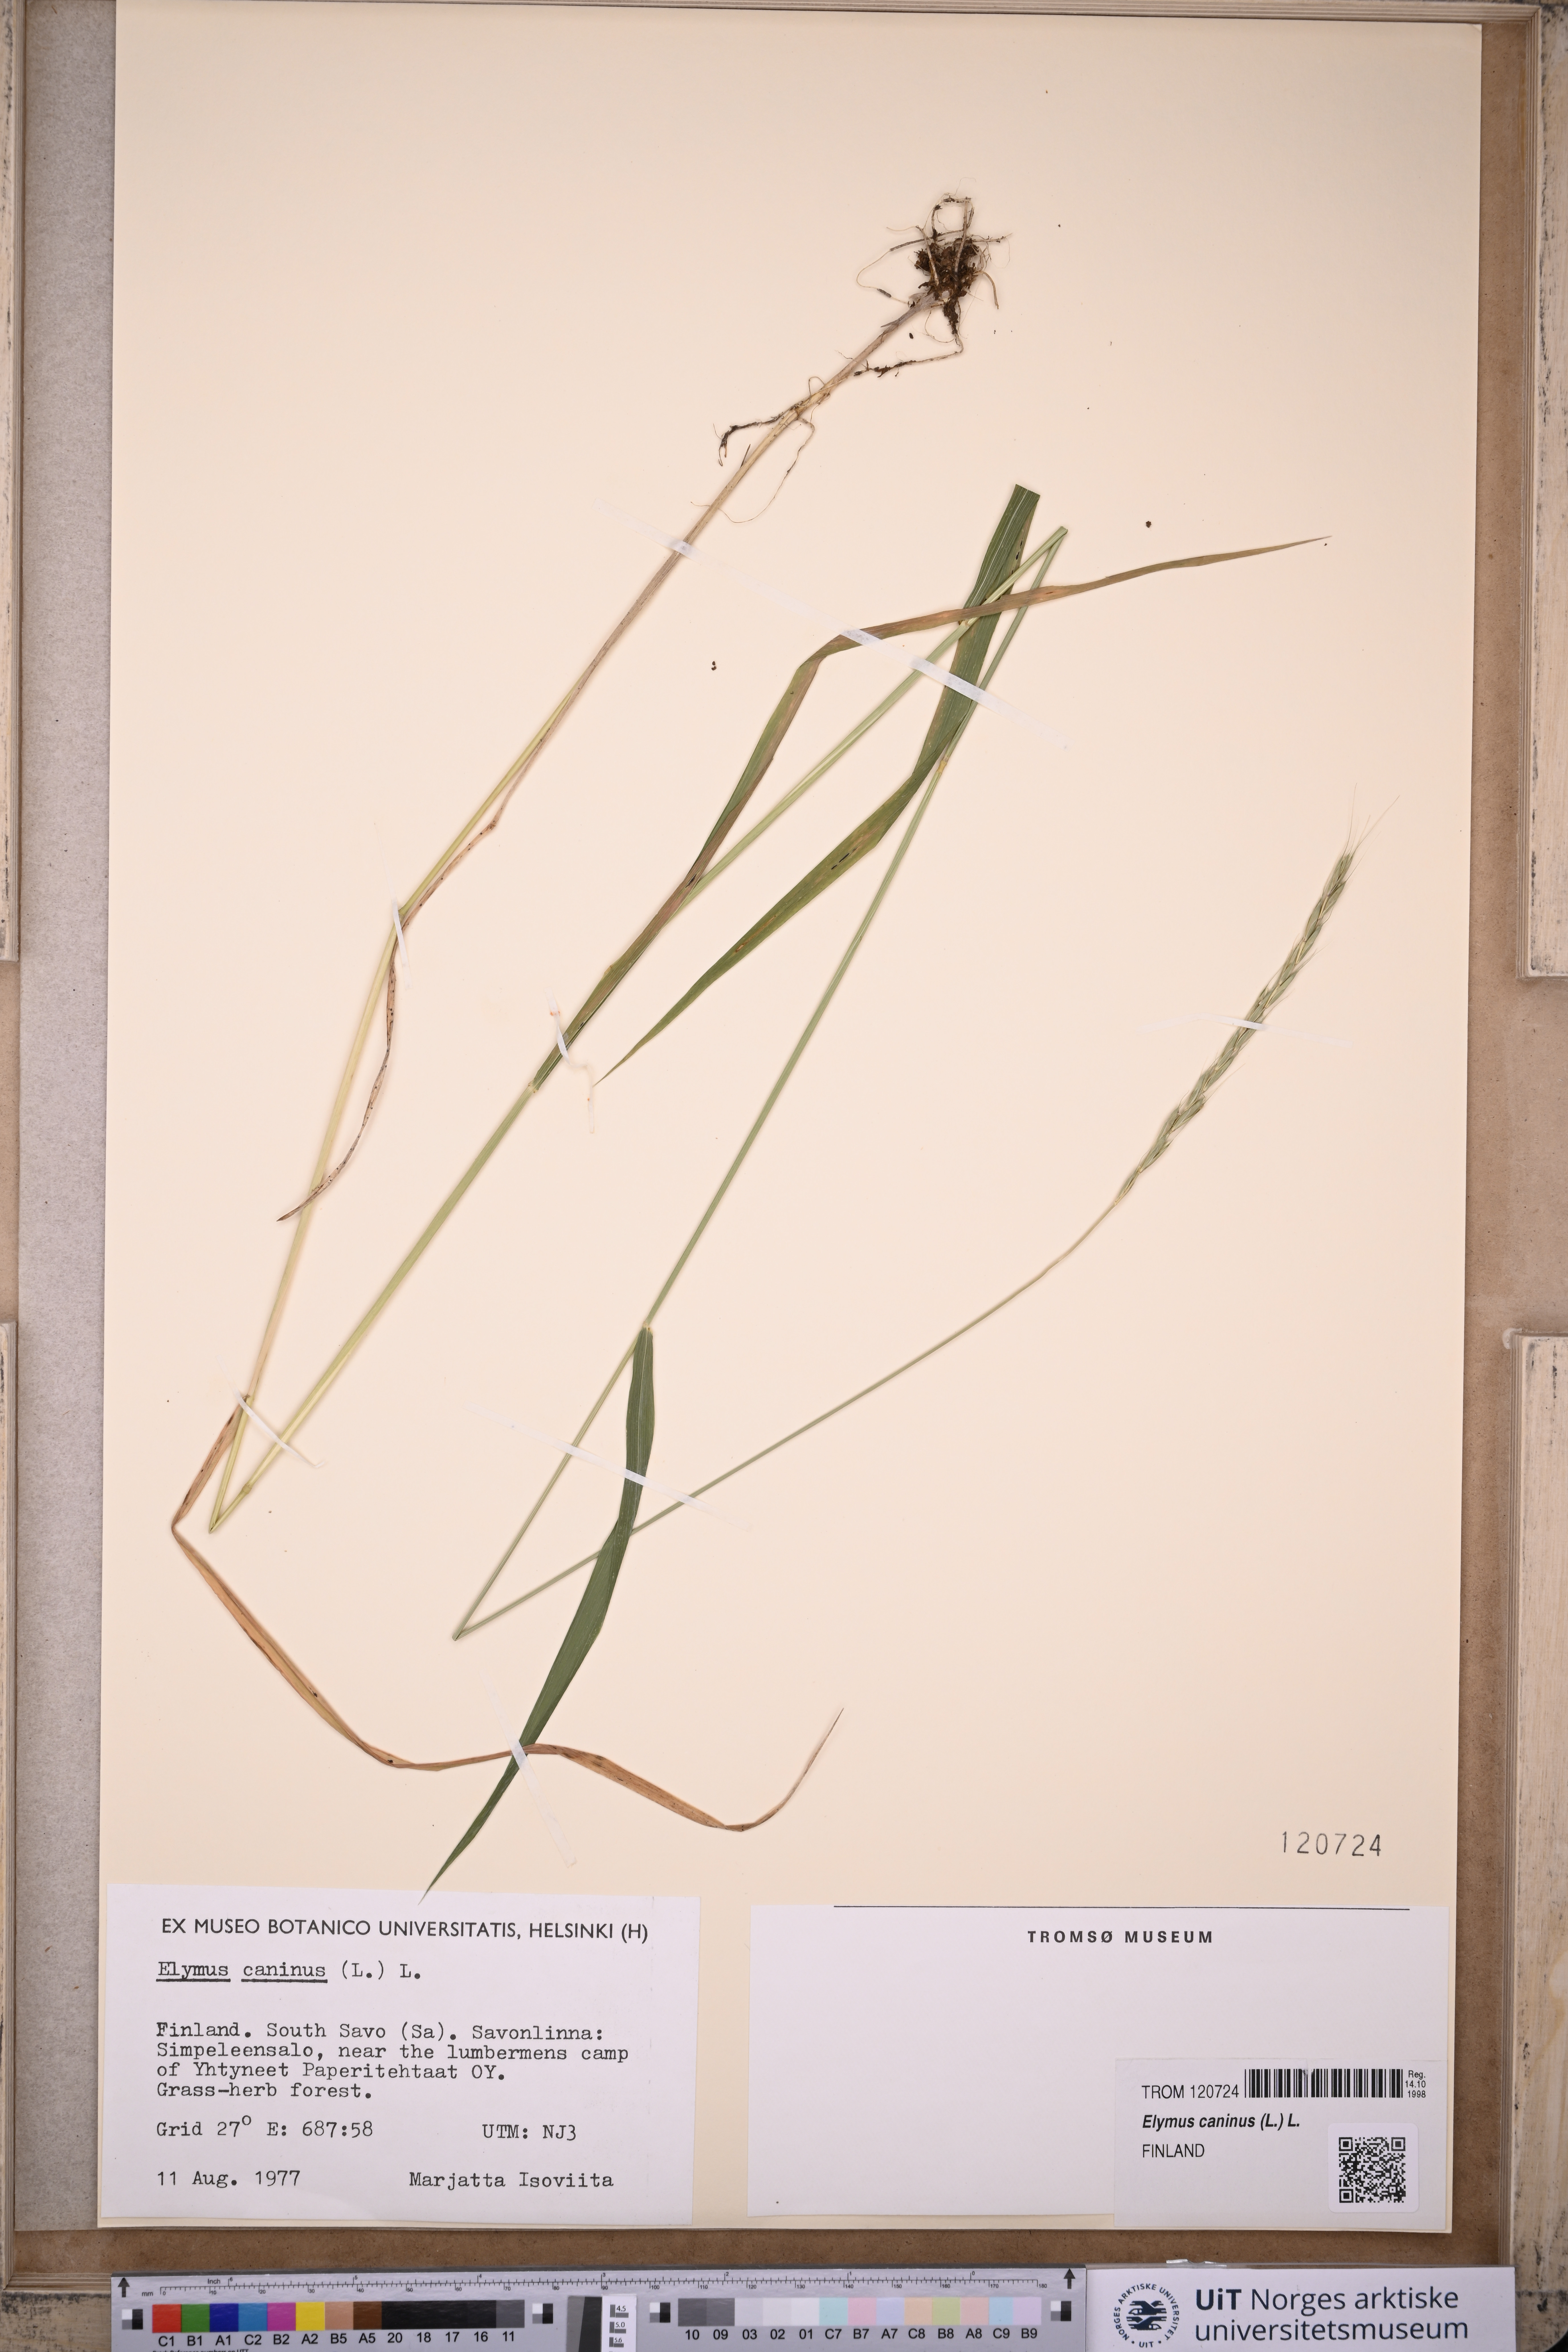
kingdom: Plantae
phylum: Tracheophyta
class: Liliopsida
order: Poales
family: Poaceae
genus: Elymus
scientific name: Elymus caninus
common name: Bearded couch
